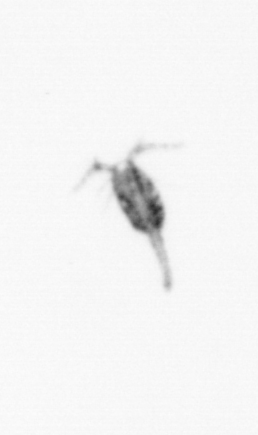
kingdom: Animalia
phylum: Arthropoda
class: Copepoda
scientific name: Copepoda
